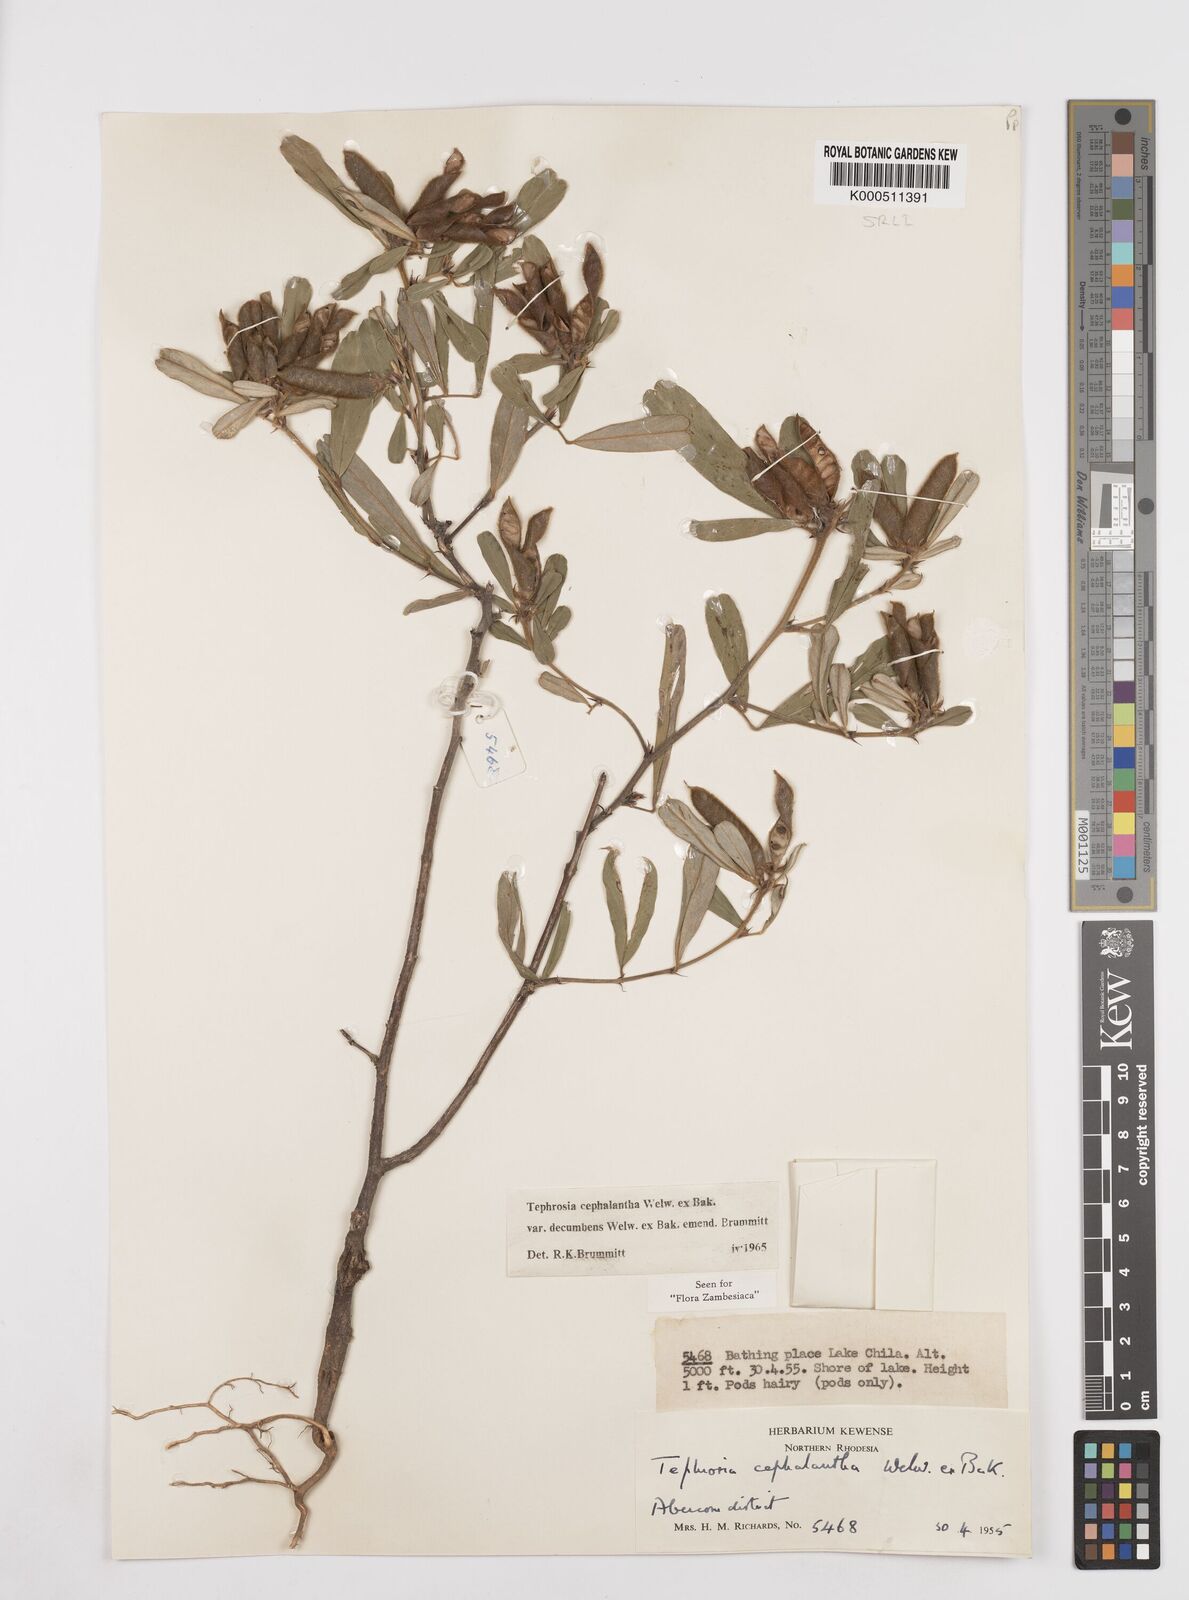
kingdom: Plantae
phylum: Tracheophyta
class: Magnoliopsida
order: Fabales
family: Fabaceae
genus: Tephrosia
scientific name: Tephrosia
